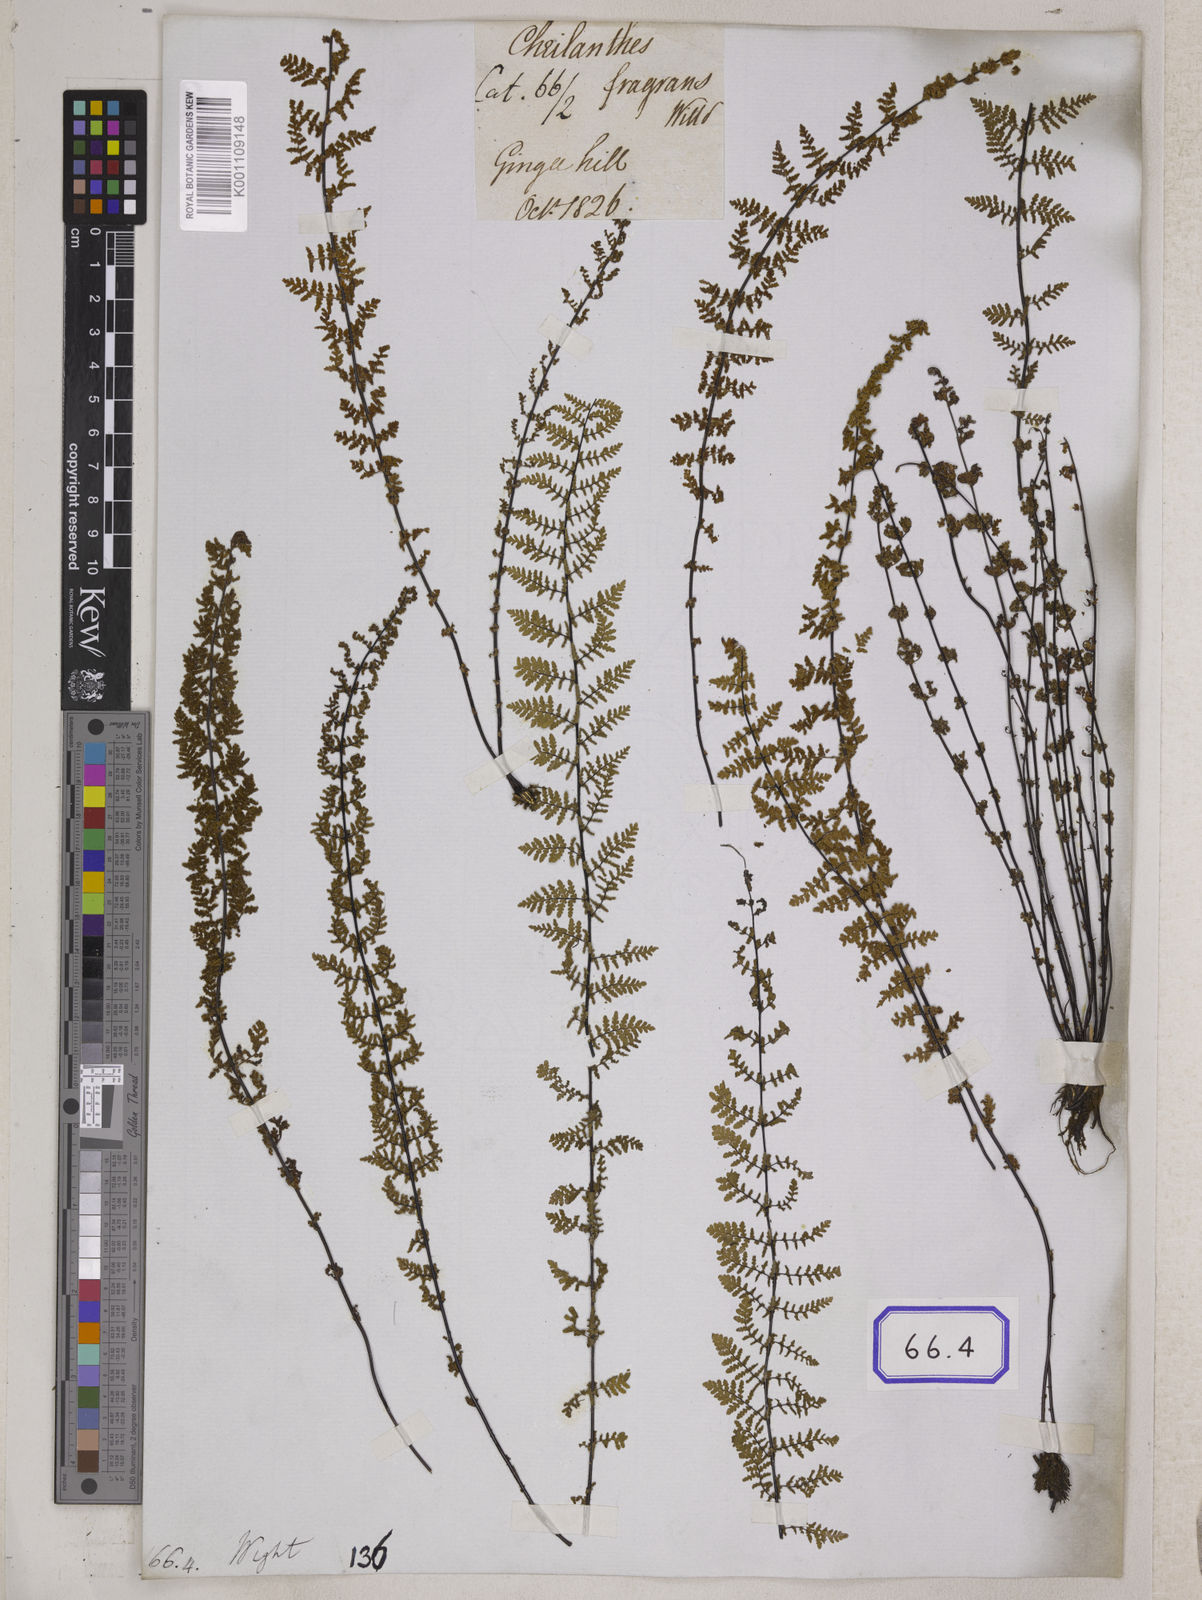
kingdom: Plantae
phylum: Tracheophyta
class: Polypodiopsida
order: Polypodiales
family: Pteridaceae
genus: Oeosporangium
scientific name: Oeosporangium elegans
